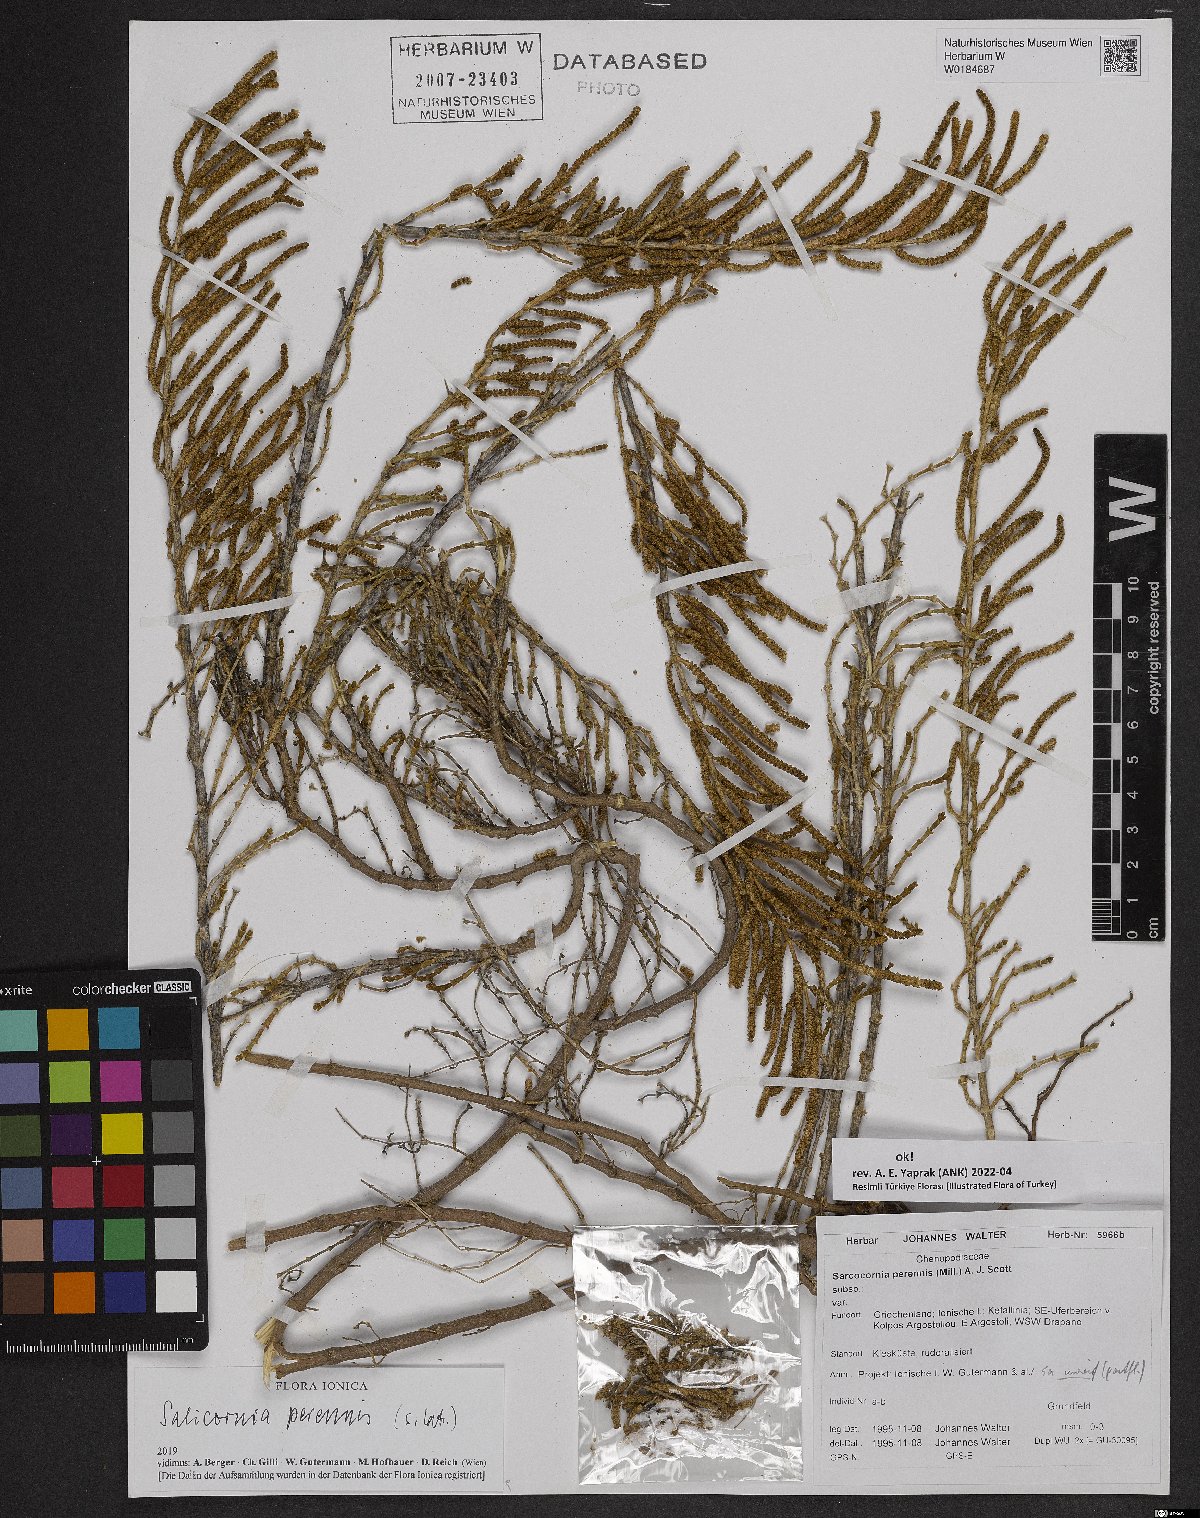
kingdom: Plantae
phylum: Tracheophyta
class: Magnoliopsida
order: Caryophyllales
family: Amaranthaceae
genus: Salicornia
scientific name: Salicornia perennis
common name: Chicken claws
